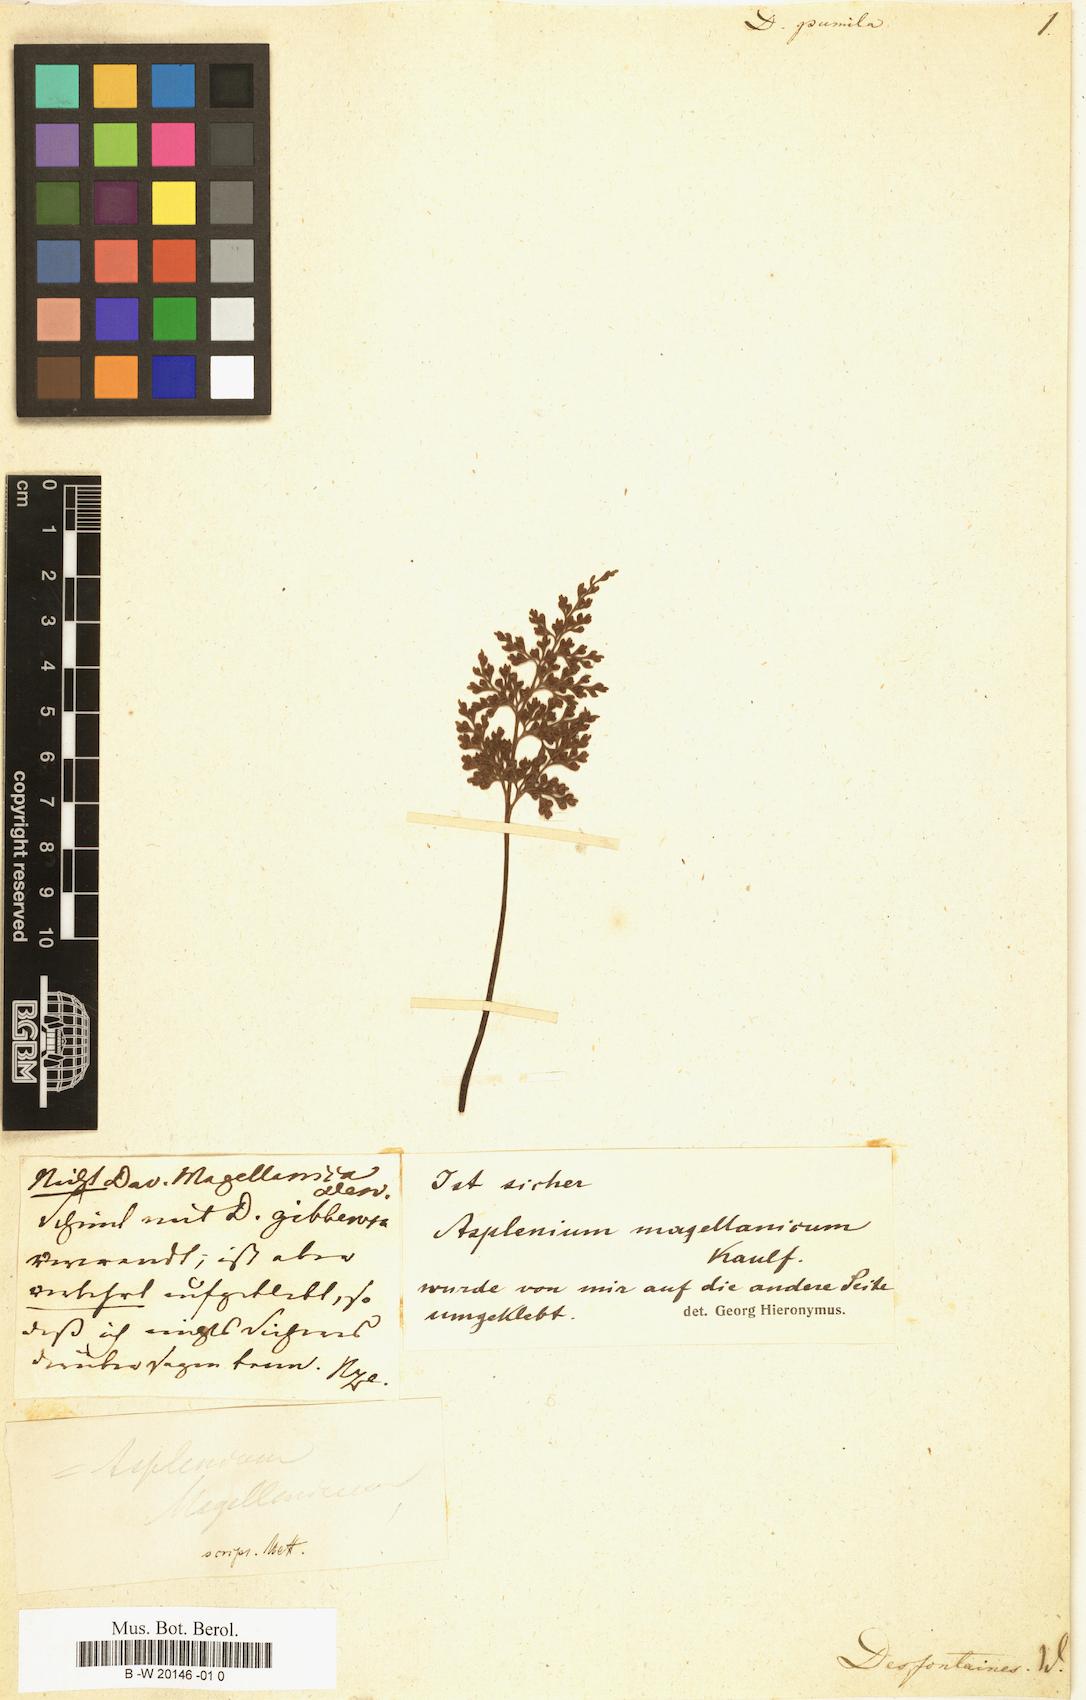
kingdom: Plantae
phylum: Tracheophyta
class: Polypodiopsida
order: Cyatheales
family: Dicksoniaceae
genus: Dicksonia
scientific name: Dicksonia pumila
